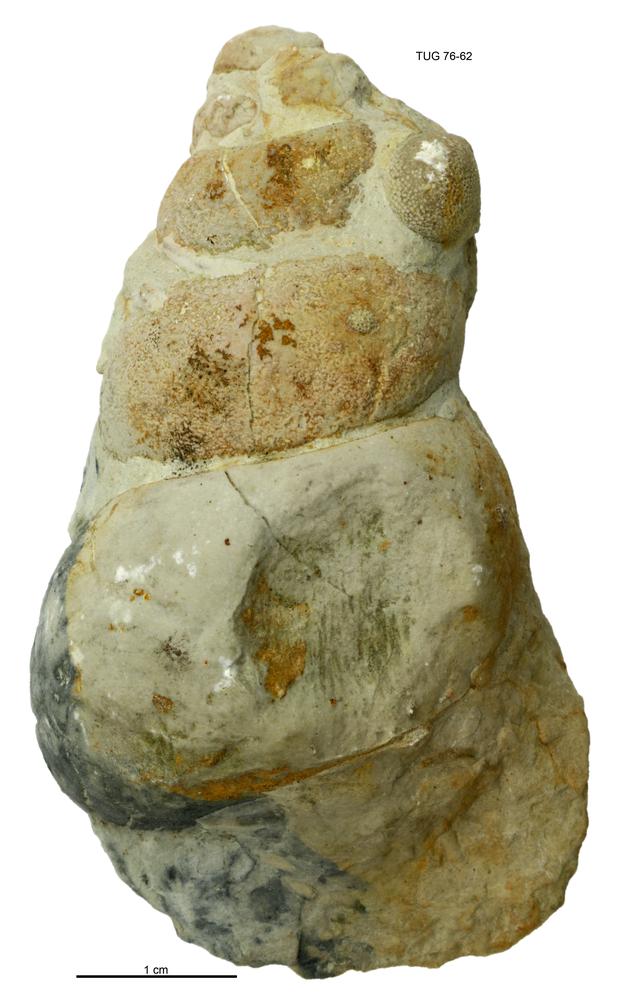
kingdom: Animalia
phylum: Mollusca
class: Gastropoda
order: Pleurotomariida
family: Murchisoniidae
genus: Murchisonia
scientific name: Murchisonia insignis
